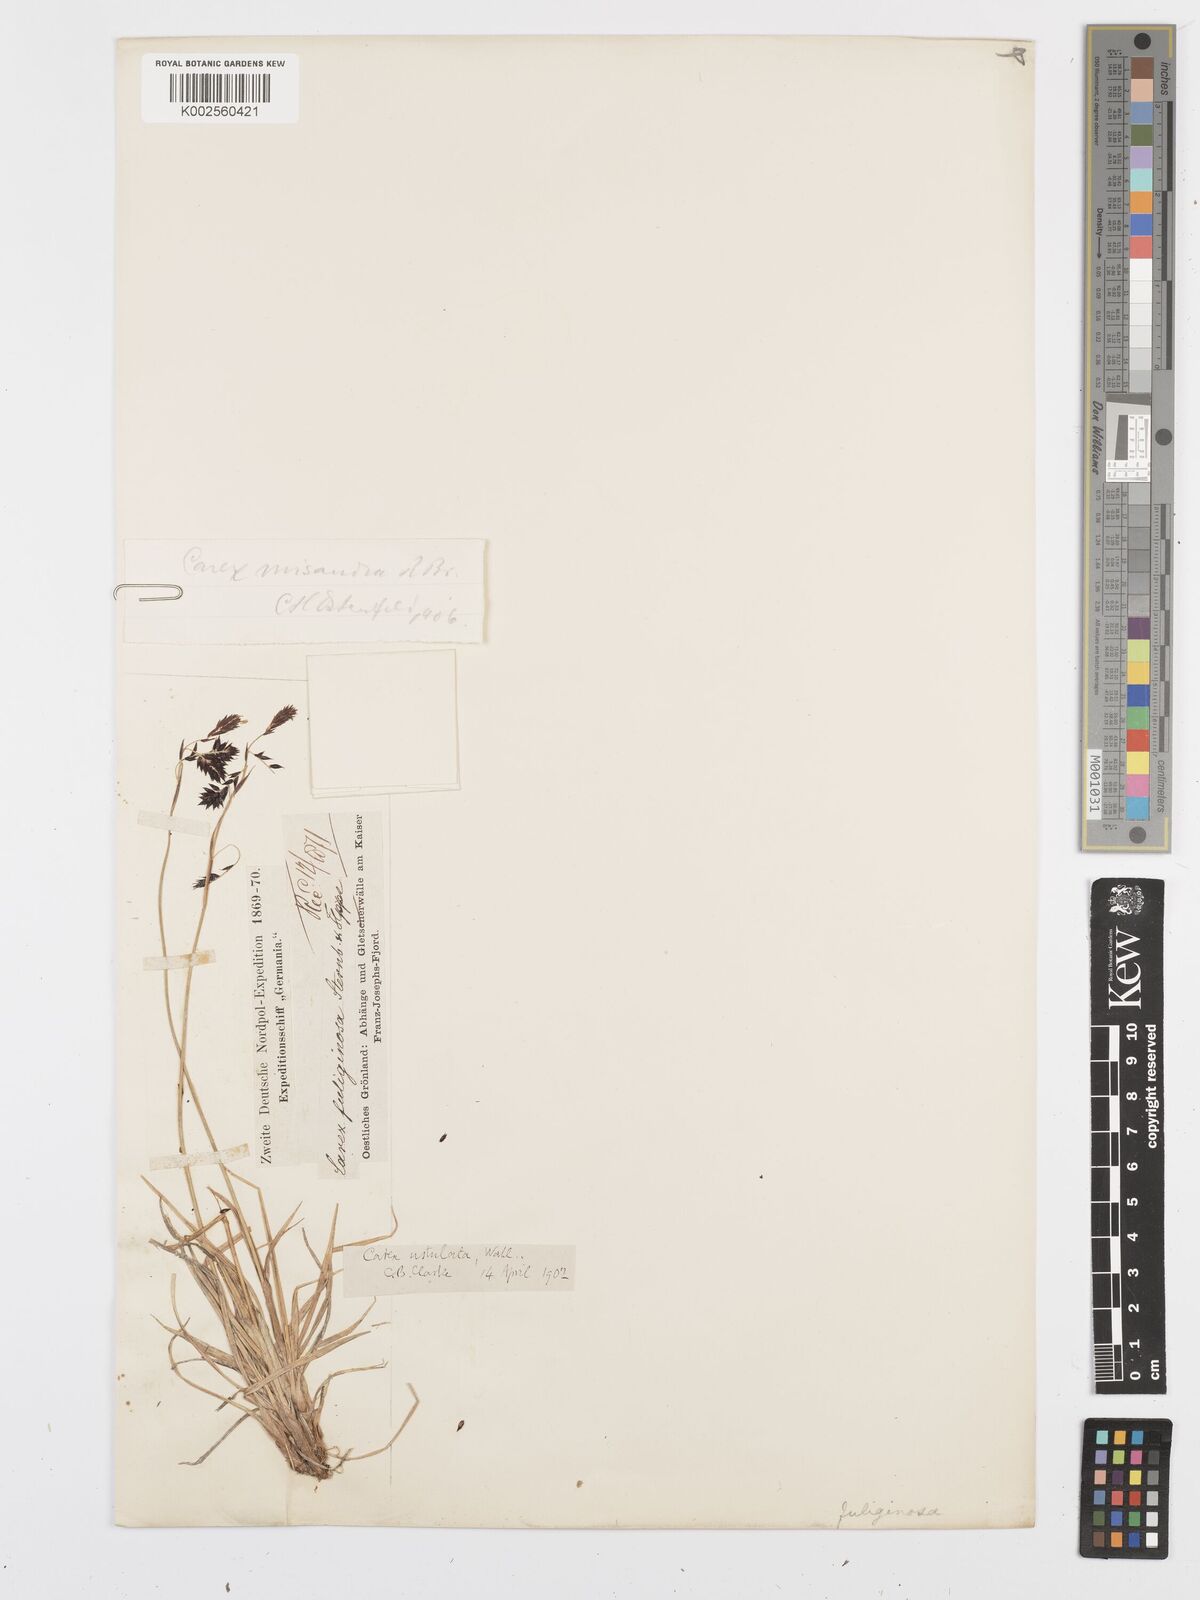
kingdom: Plantae
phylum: Tracheophyta
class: Liliopsida
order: Poales
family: Cyperaceae
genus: Carex
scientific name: Carex atrofusca
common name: Scorched alpine-sedge
